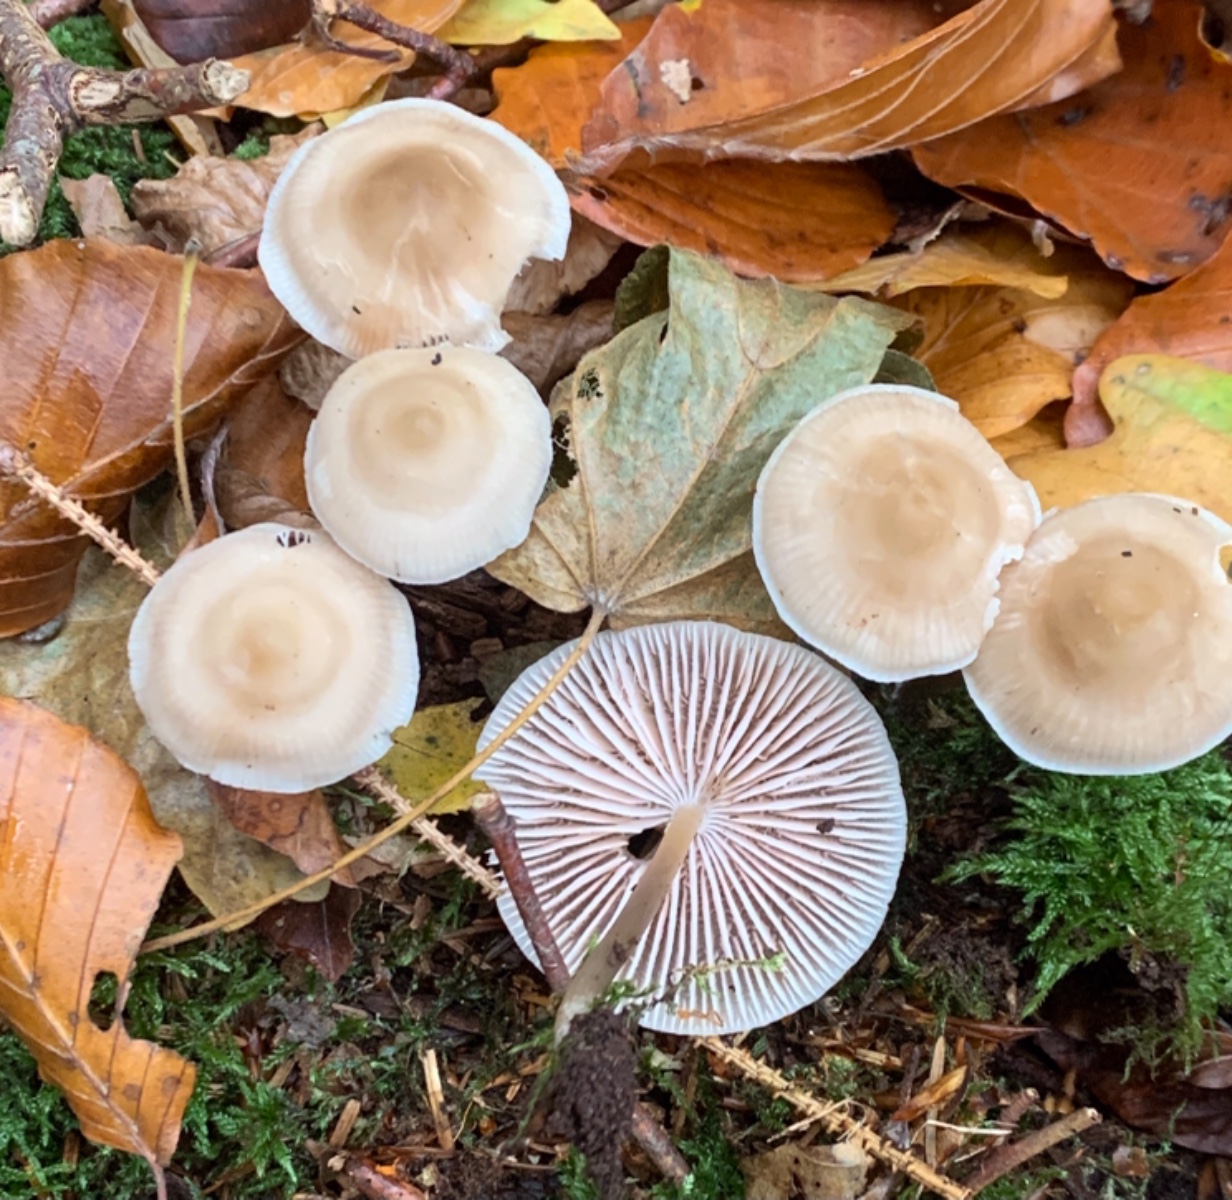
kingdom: Fungi
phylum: Basidiomycota
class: Agaricomycetes
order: Agaricales
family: Mycenaceae
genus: Mycena
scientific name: Mycena galericulata
